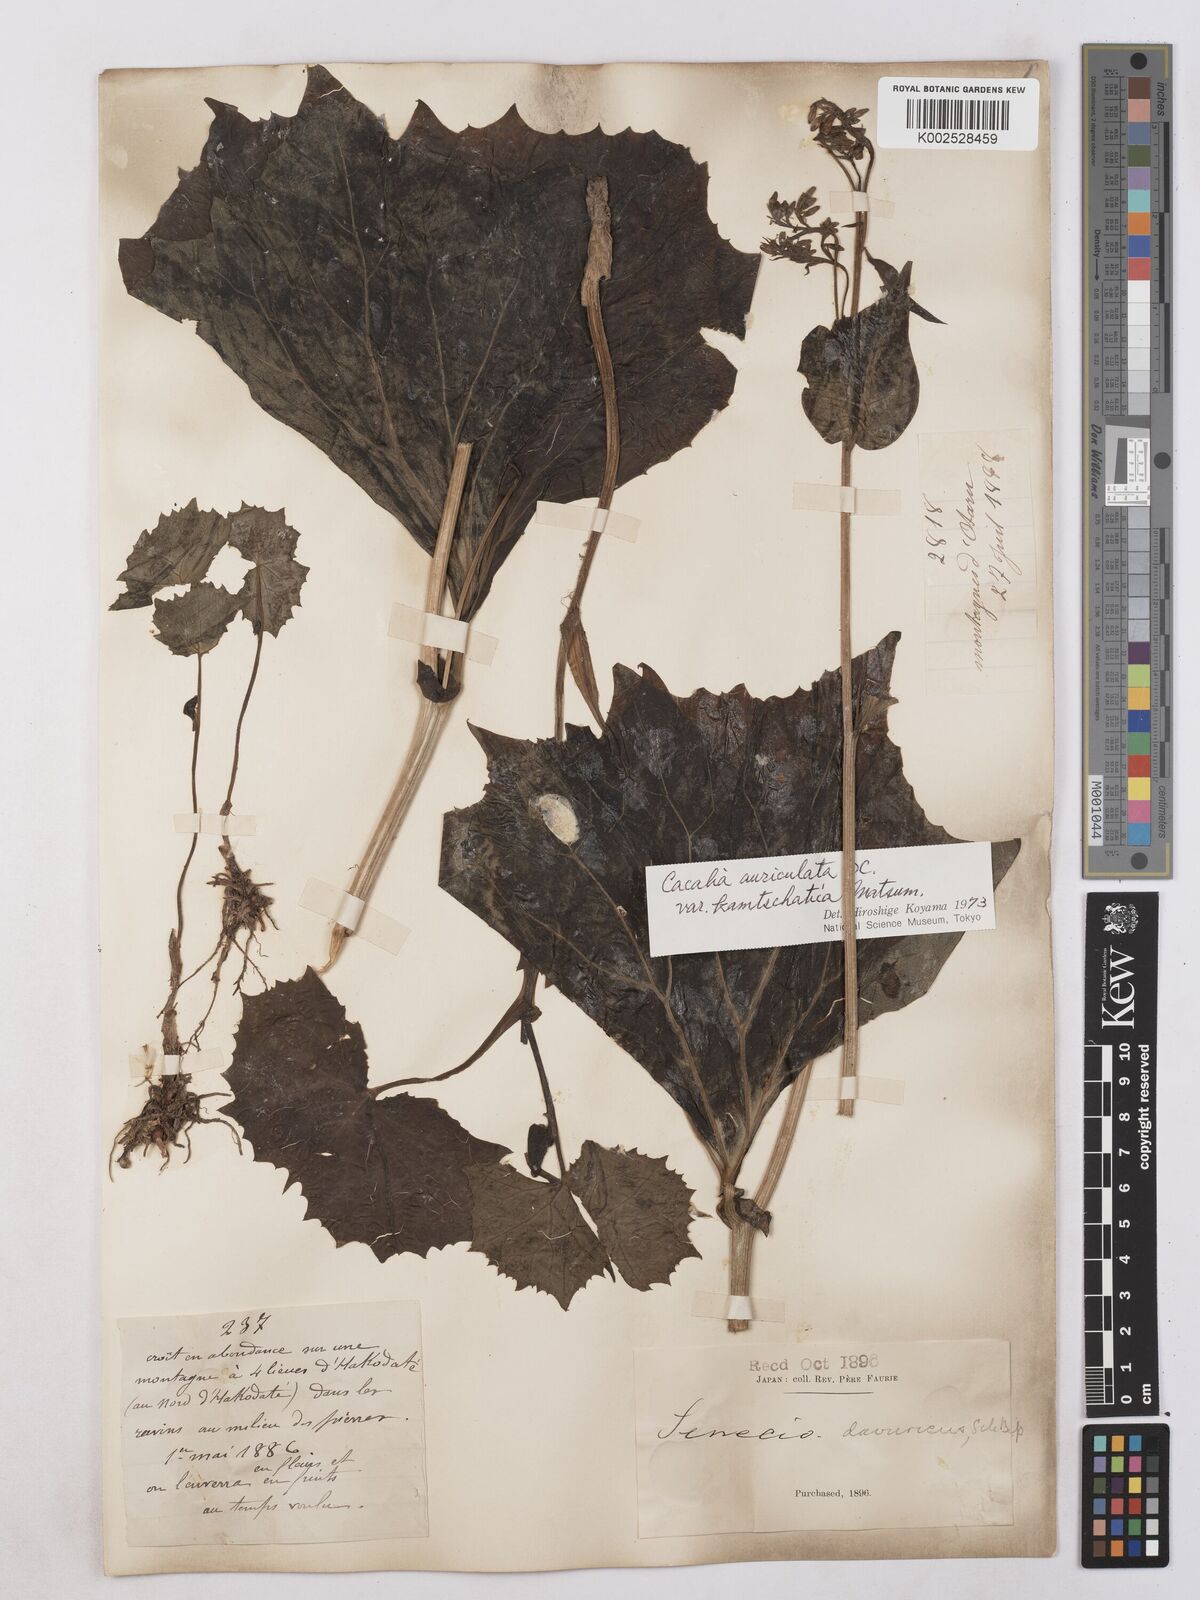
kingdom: Plantae
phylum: Tracheophyta
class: Magnoliopsida
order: Asterales
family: Asteraceae
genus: Senecio
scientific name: Senecio davuricus
